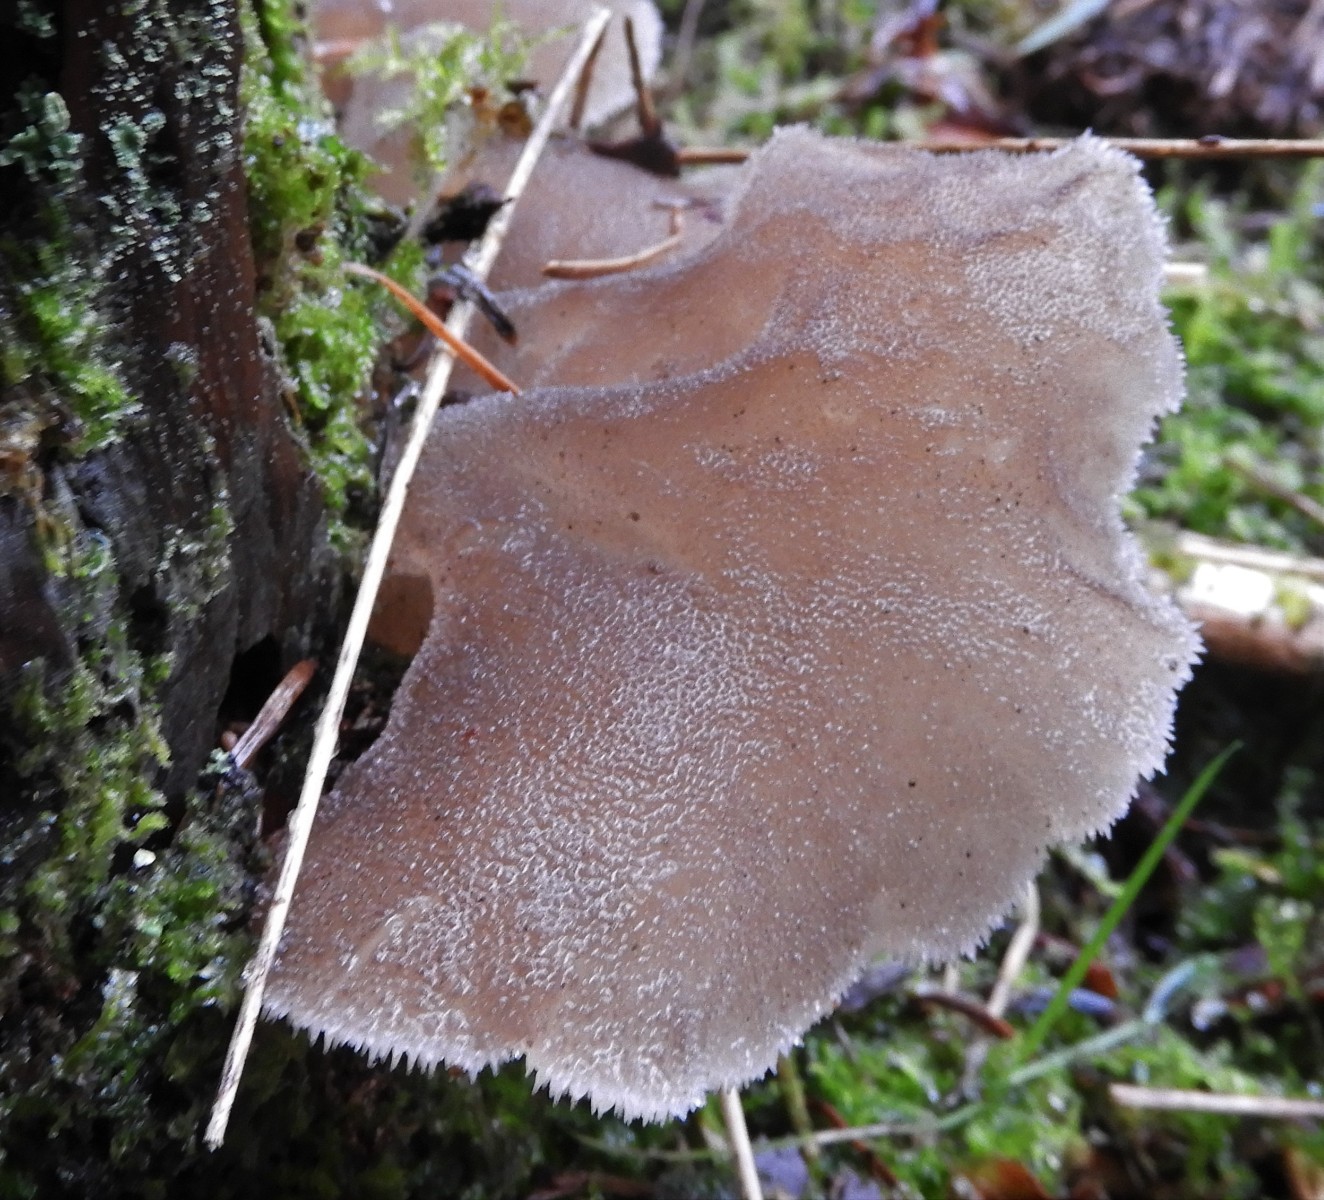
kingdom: Fungi
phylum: Basidiomycota
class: Agaricomycetes
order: Auriculariales
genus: Pseudohydnum
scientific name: Pseudohydnum gelatinosum
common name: bævretand
